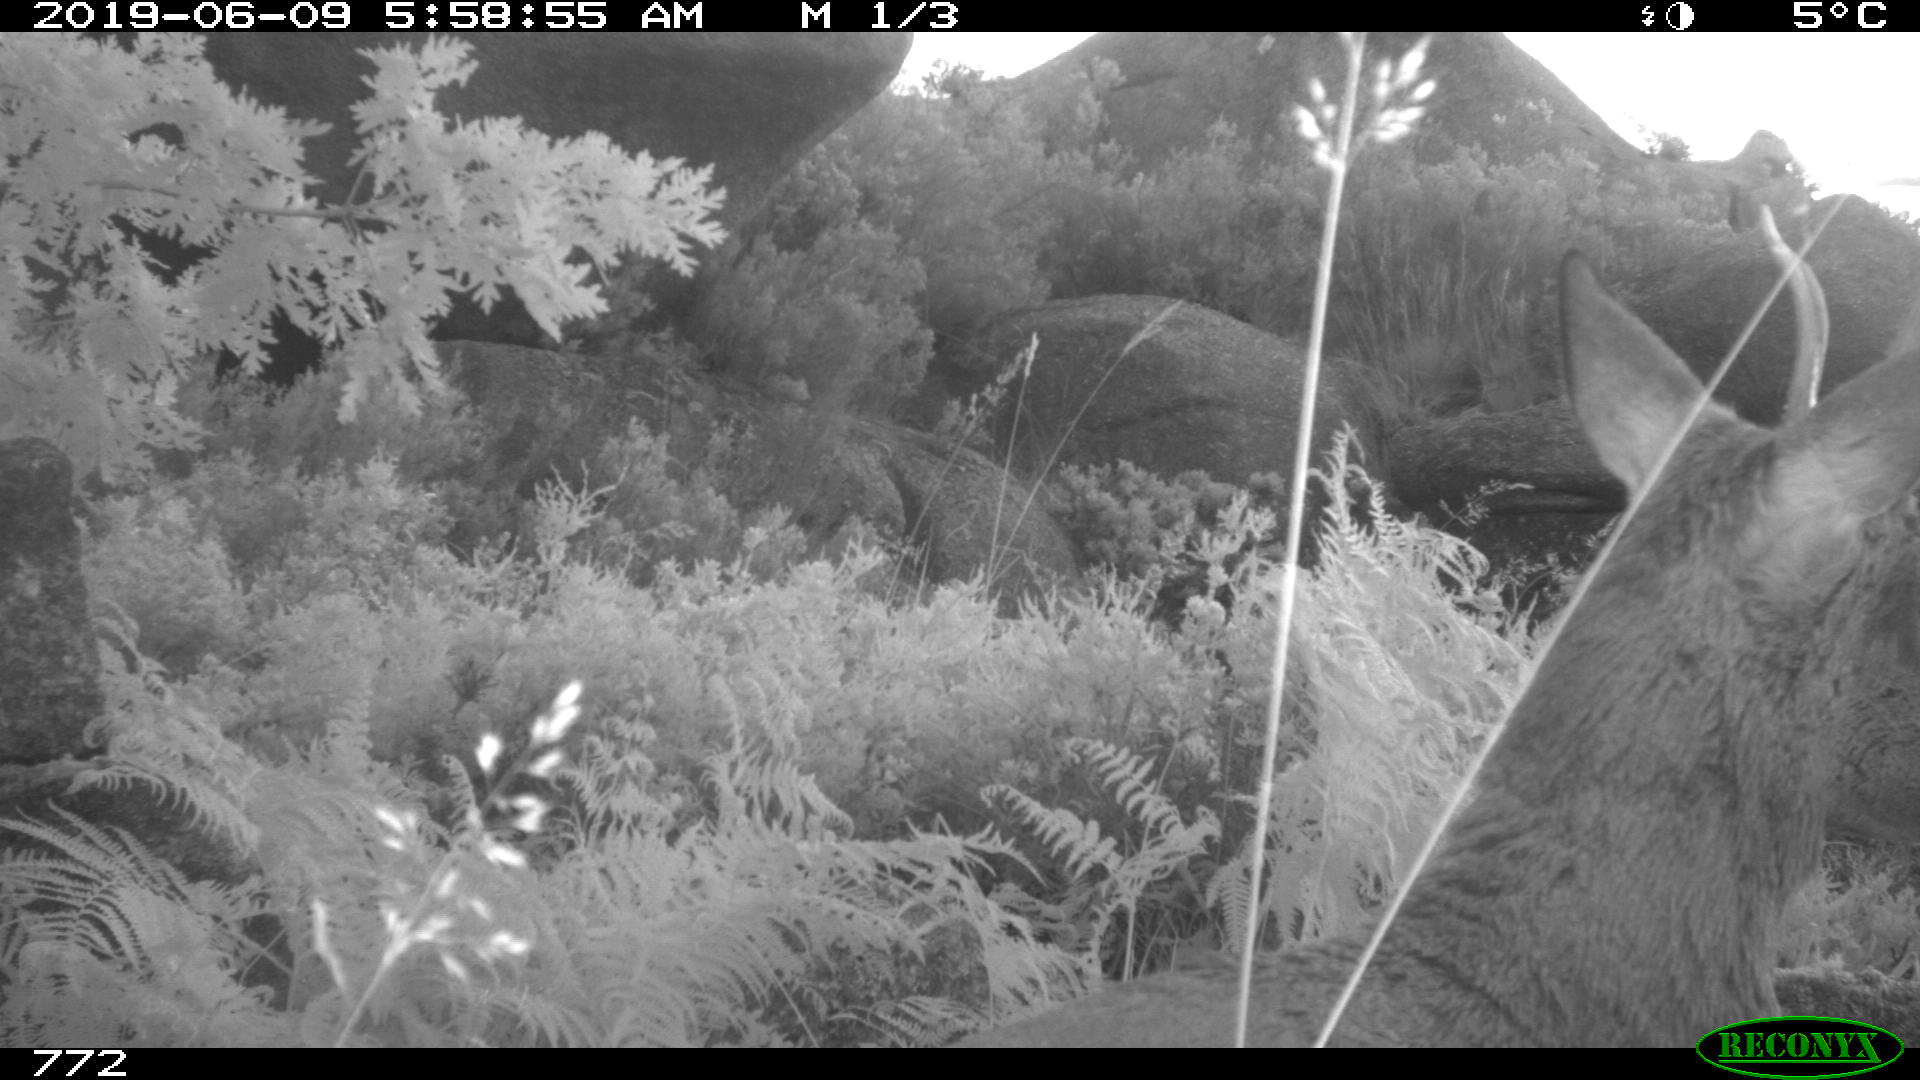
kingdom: Animalia
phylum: Chordata
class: Mammalia
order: Artiodactyla
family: Cervidae
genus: Capreolus
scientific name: Capreolus capreolus
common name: Western roe deer
